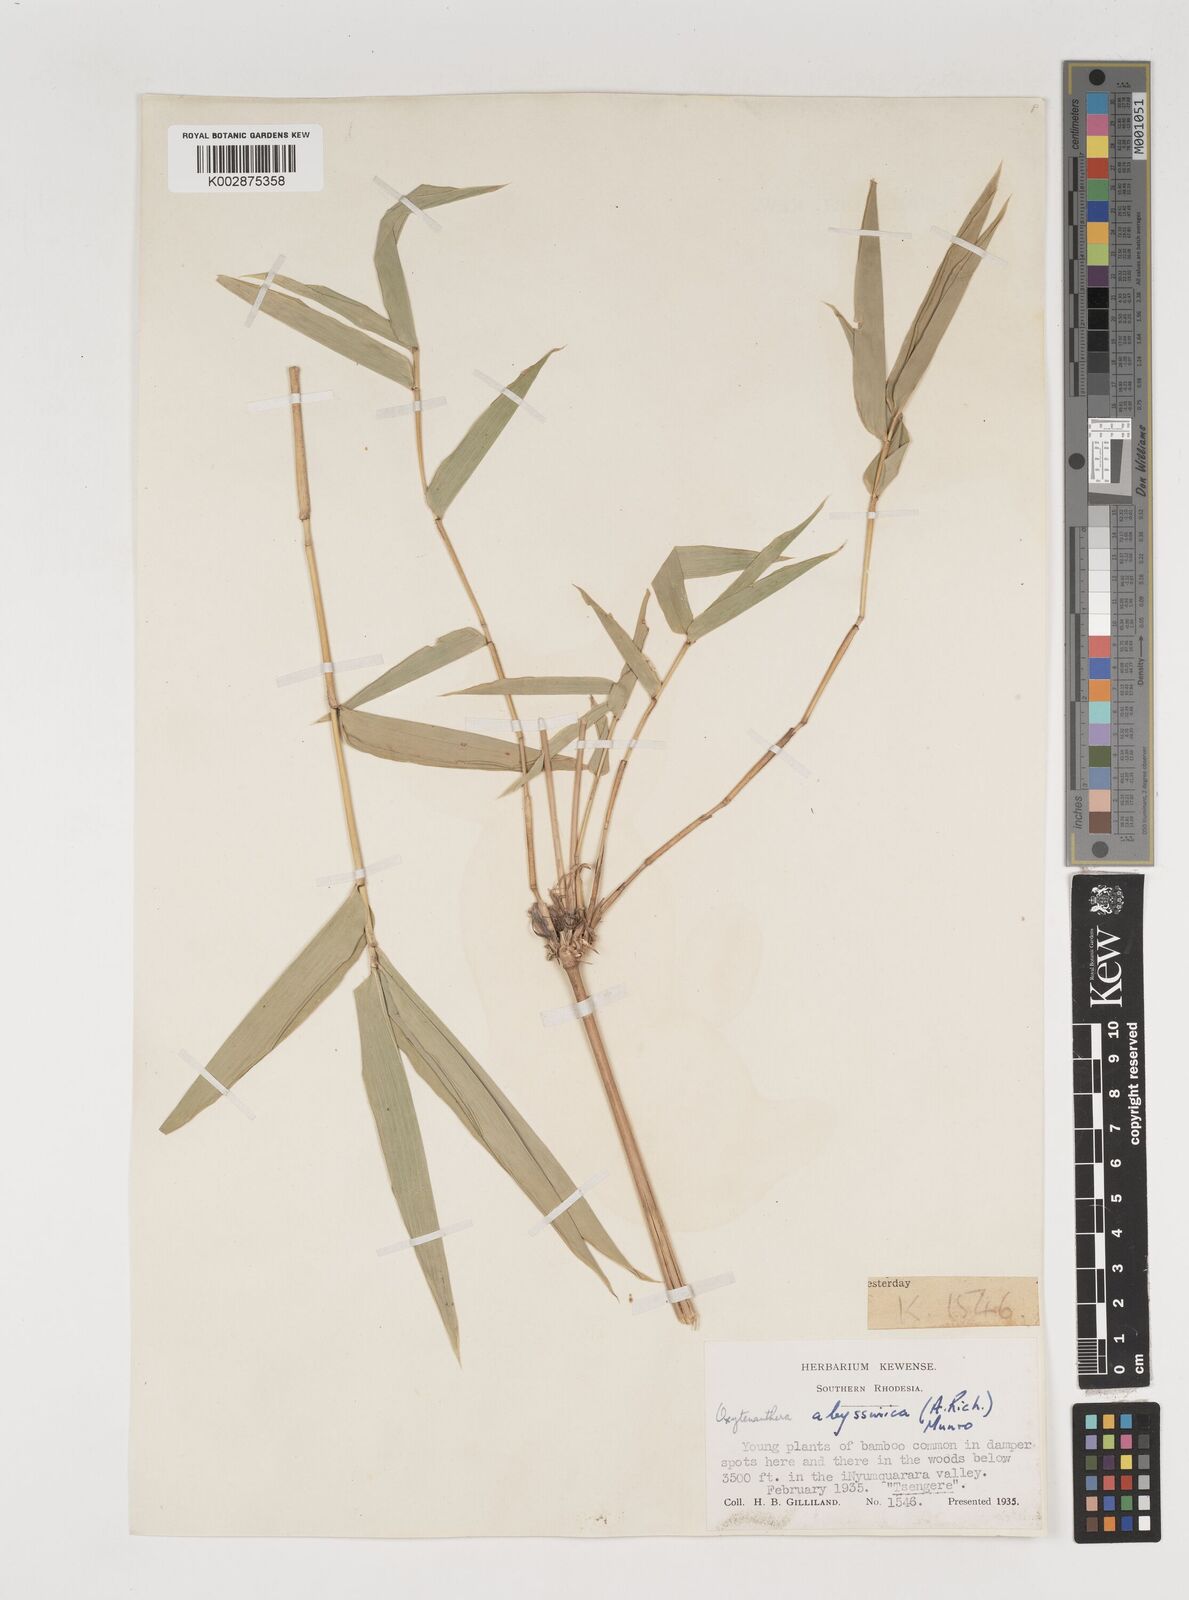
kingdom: Plantae
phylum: Tracheophyta
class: Liliopsida
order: Poales
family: Poaceae
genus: Oxytenanthera
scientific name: Oxytenanthera abyssinica
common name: Wine bamboo
